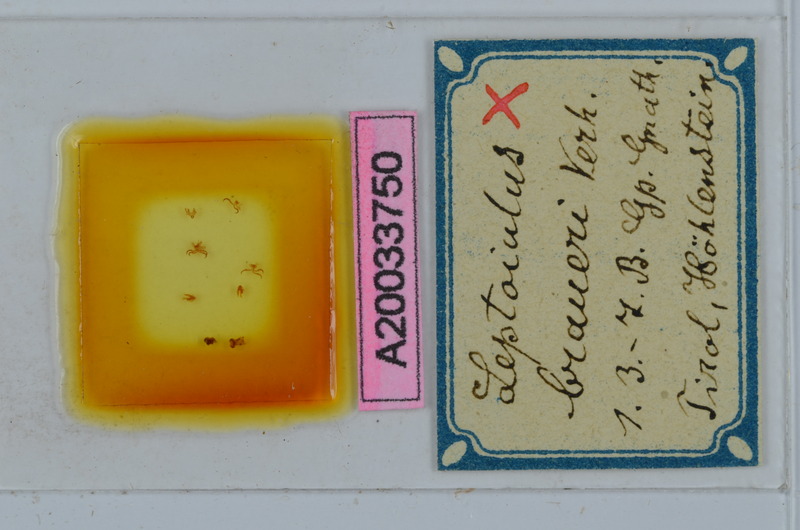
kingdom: Animalia
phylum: Arthropoda
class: Diplopoda
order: Julida
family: Julidae
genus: Leptoiulus
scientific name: Leptoiulus braueri
